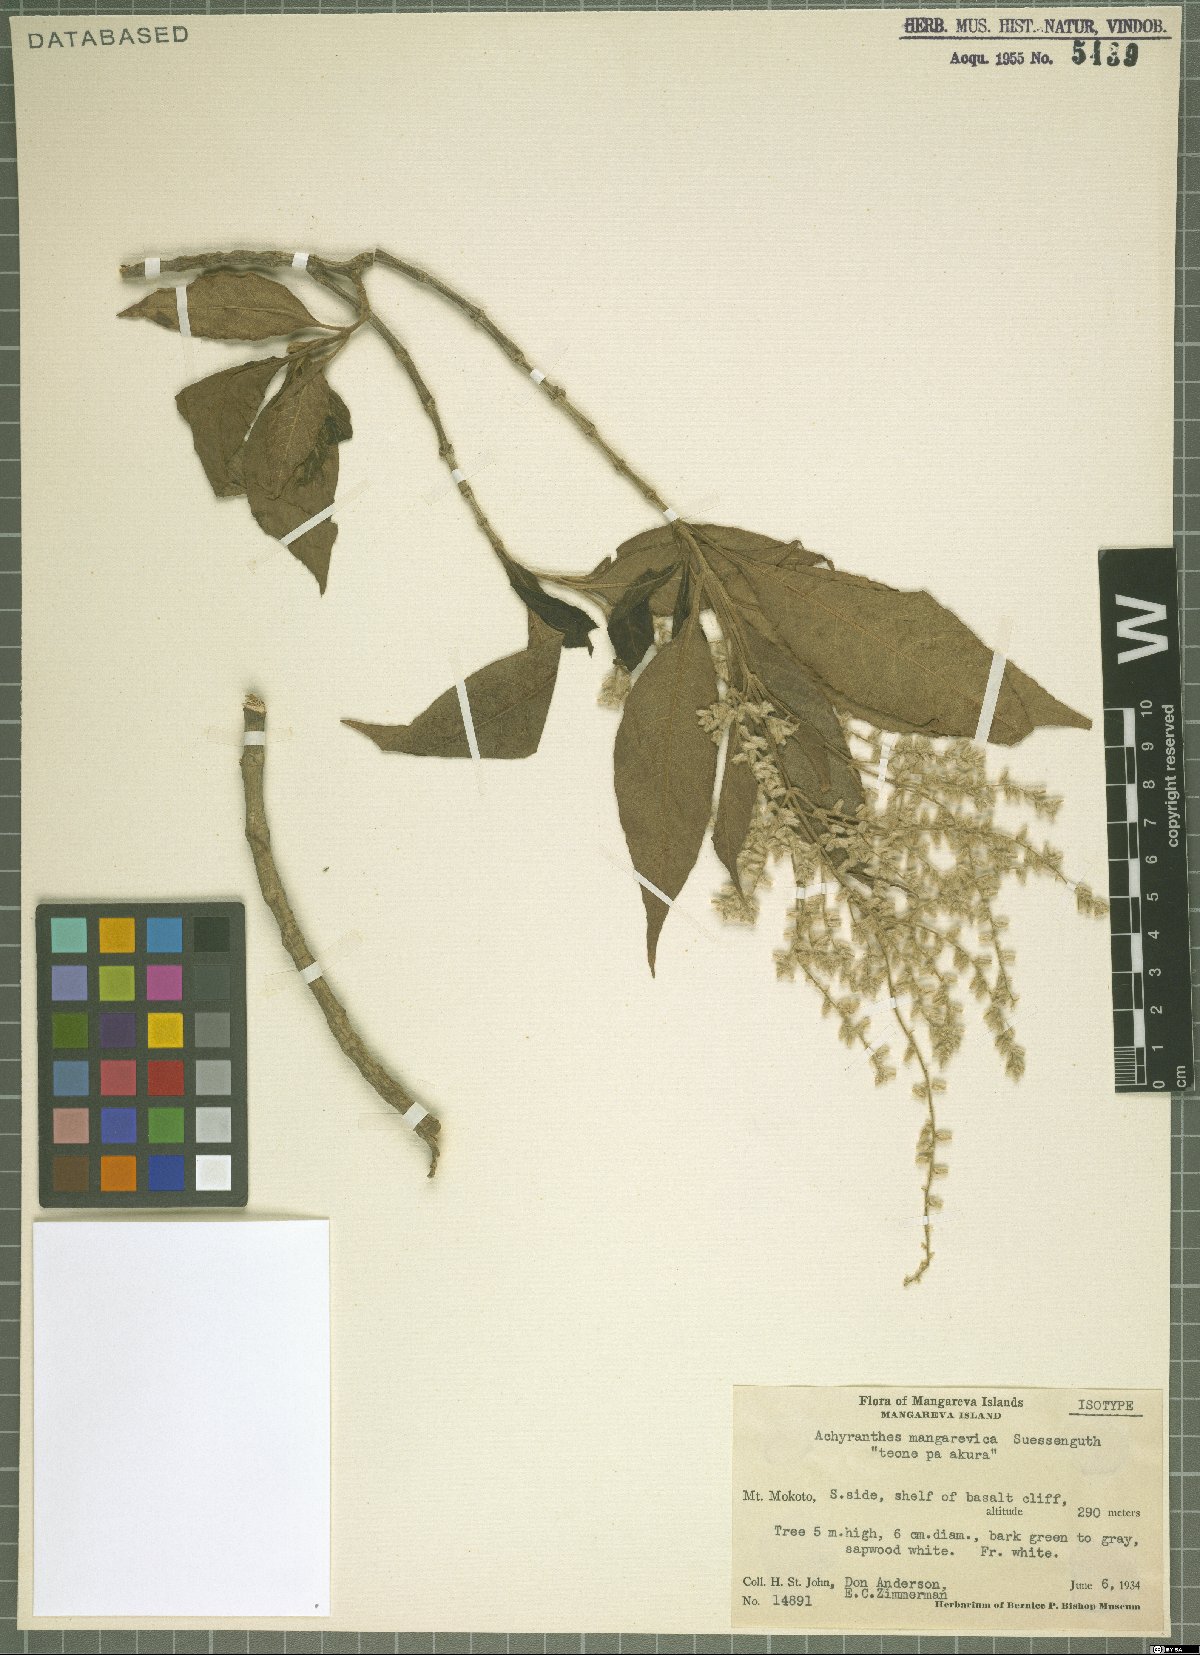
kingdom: Plantae
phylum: Tracheophyta
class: Magnoliopsida
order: Caryophyllales
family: Amaranthaceae
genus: Achyranthes
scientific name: Achyranthes mangarevica
